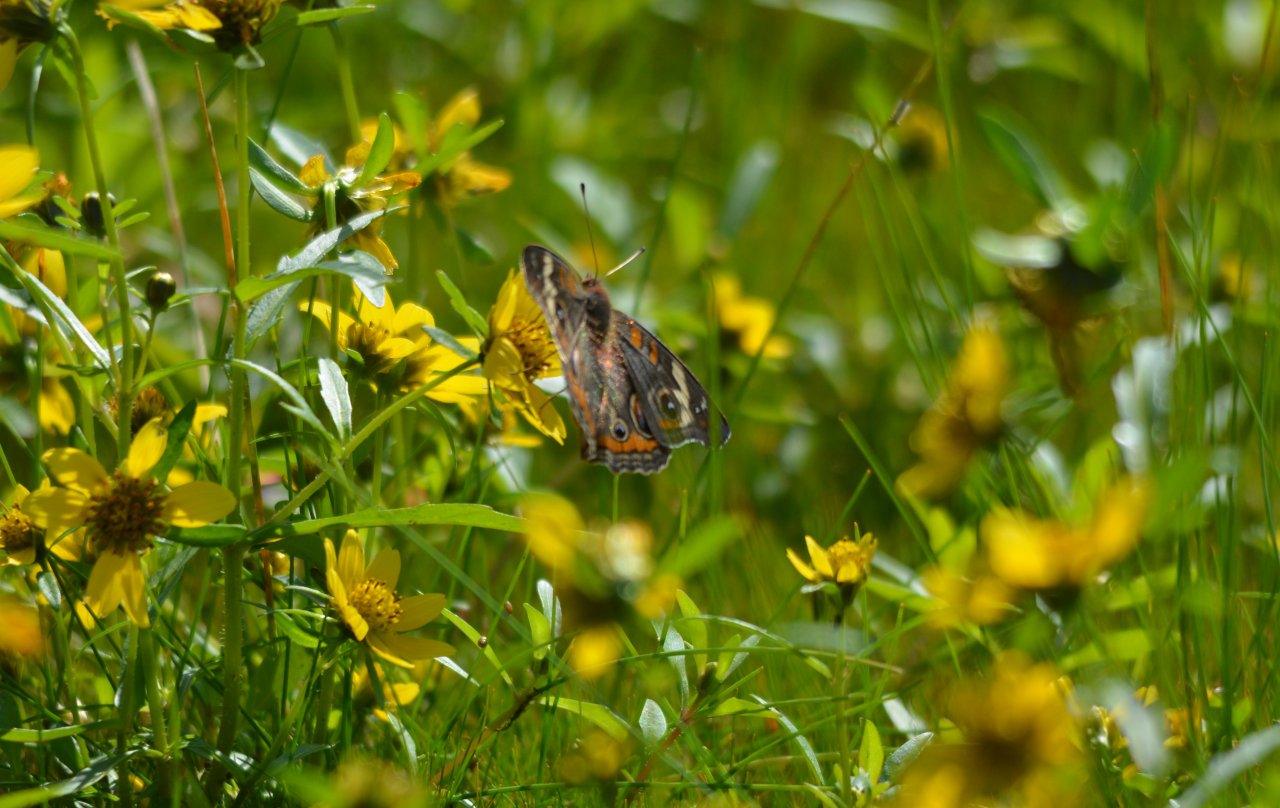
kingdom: Animalia
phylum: Arthropoda
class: Insecta
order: Lepidoptera
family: Nymphalidae
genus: Junonia
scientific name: Junonia coenia
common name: Common Buckeye
